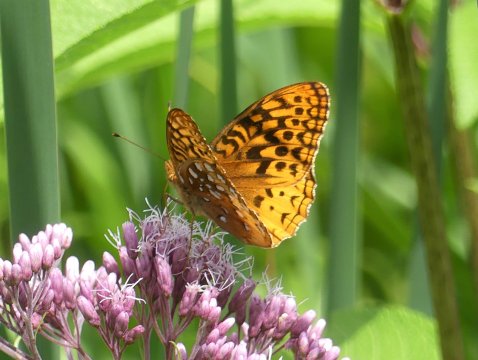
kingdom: Animalia
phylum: Arthropoda
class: Insecta
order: Lepidoptera
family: Nymphalidae
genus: Speyeria
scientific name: Speyeria cybele
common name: Great Spangled Fritillary
